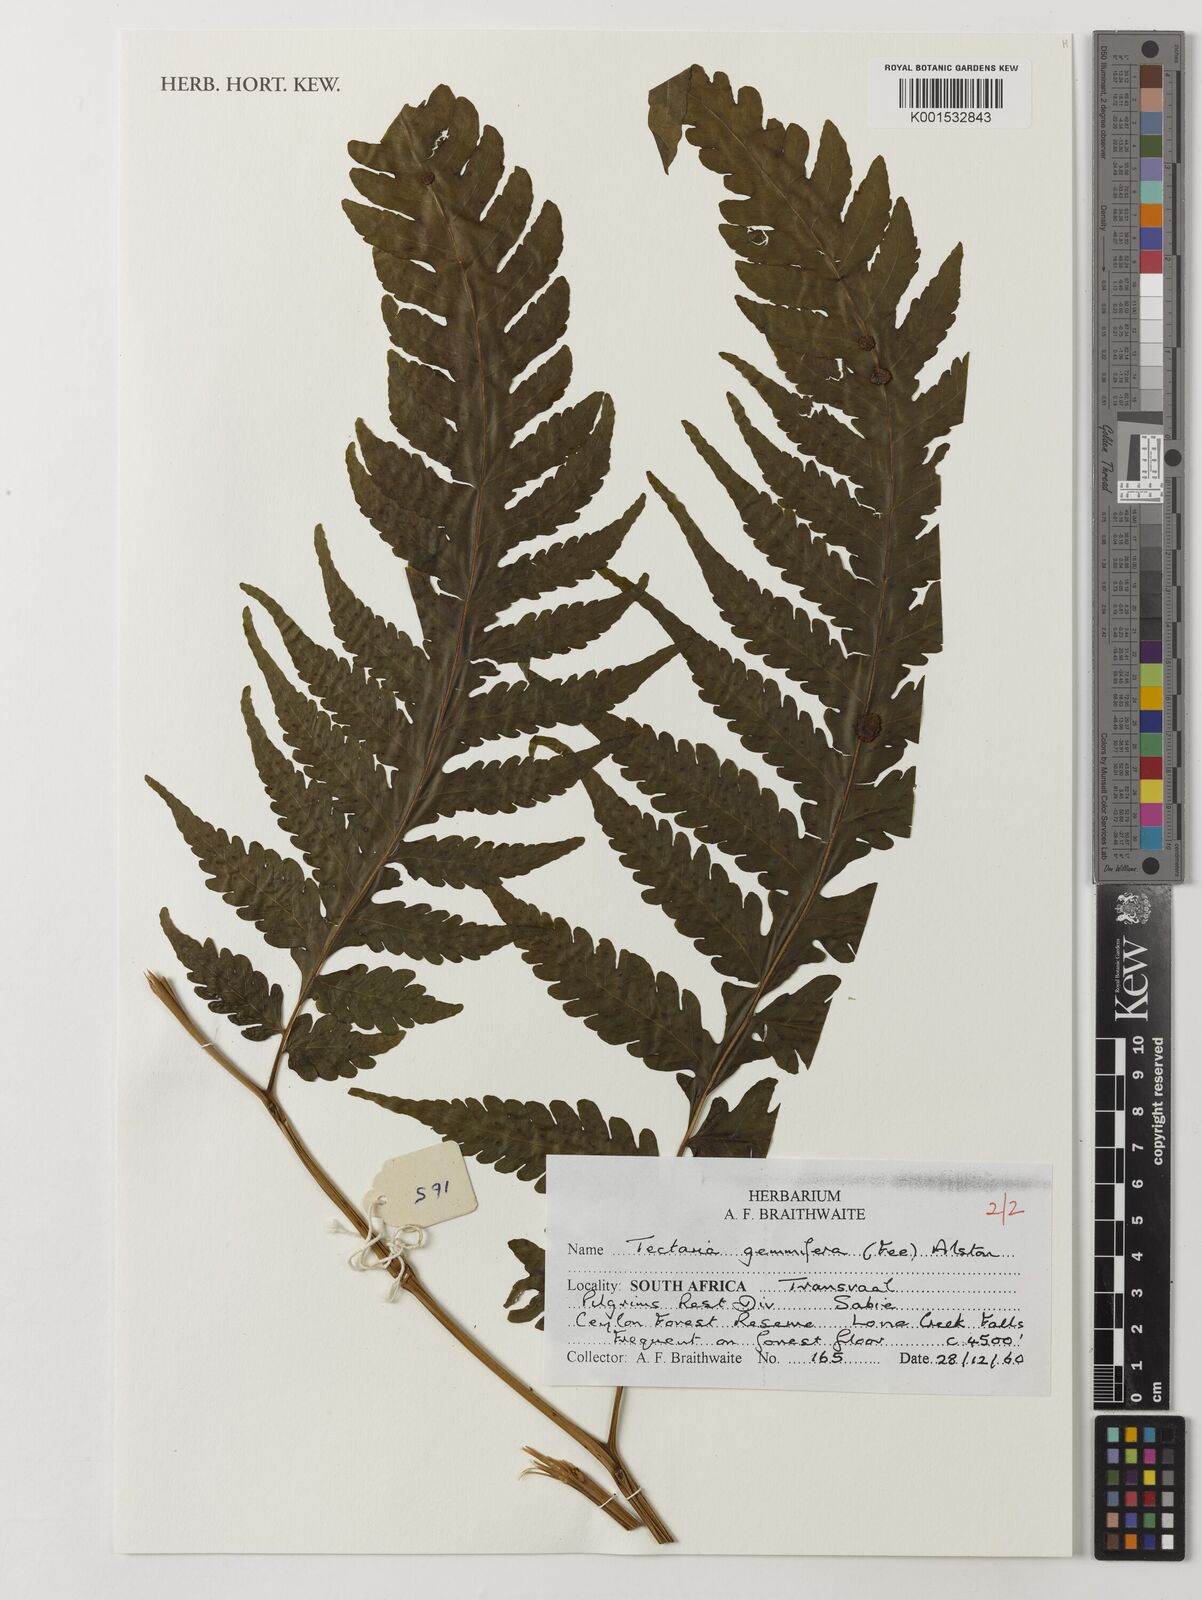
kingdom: Plantae
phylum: Tracheophyta
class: Polypodiopsida
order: Polypodiales
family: Tectariaceae
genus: Tectaria
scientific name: Tectaria gemmifera
